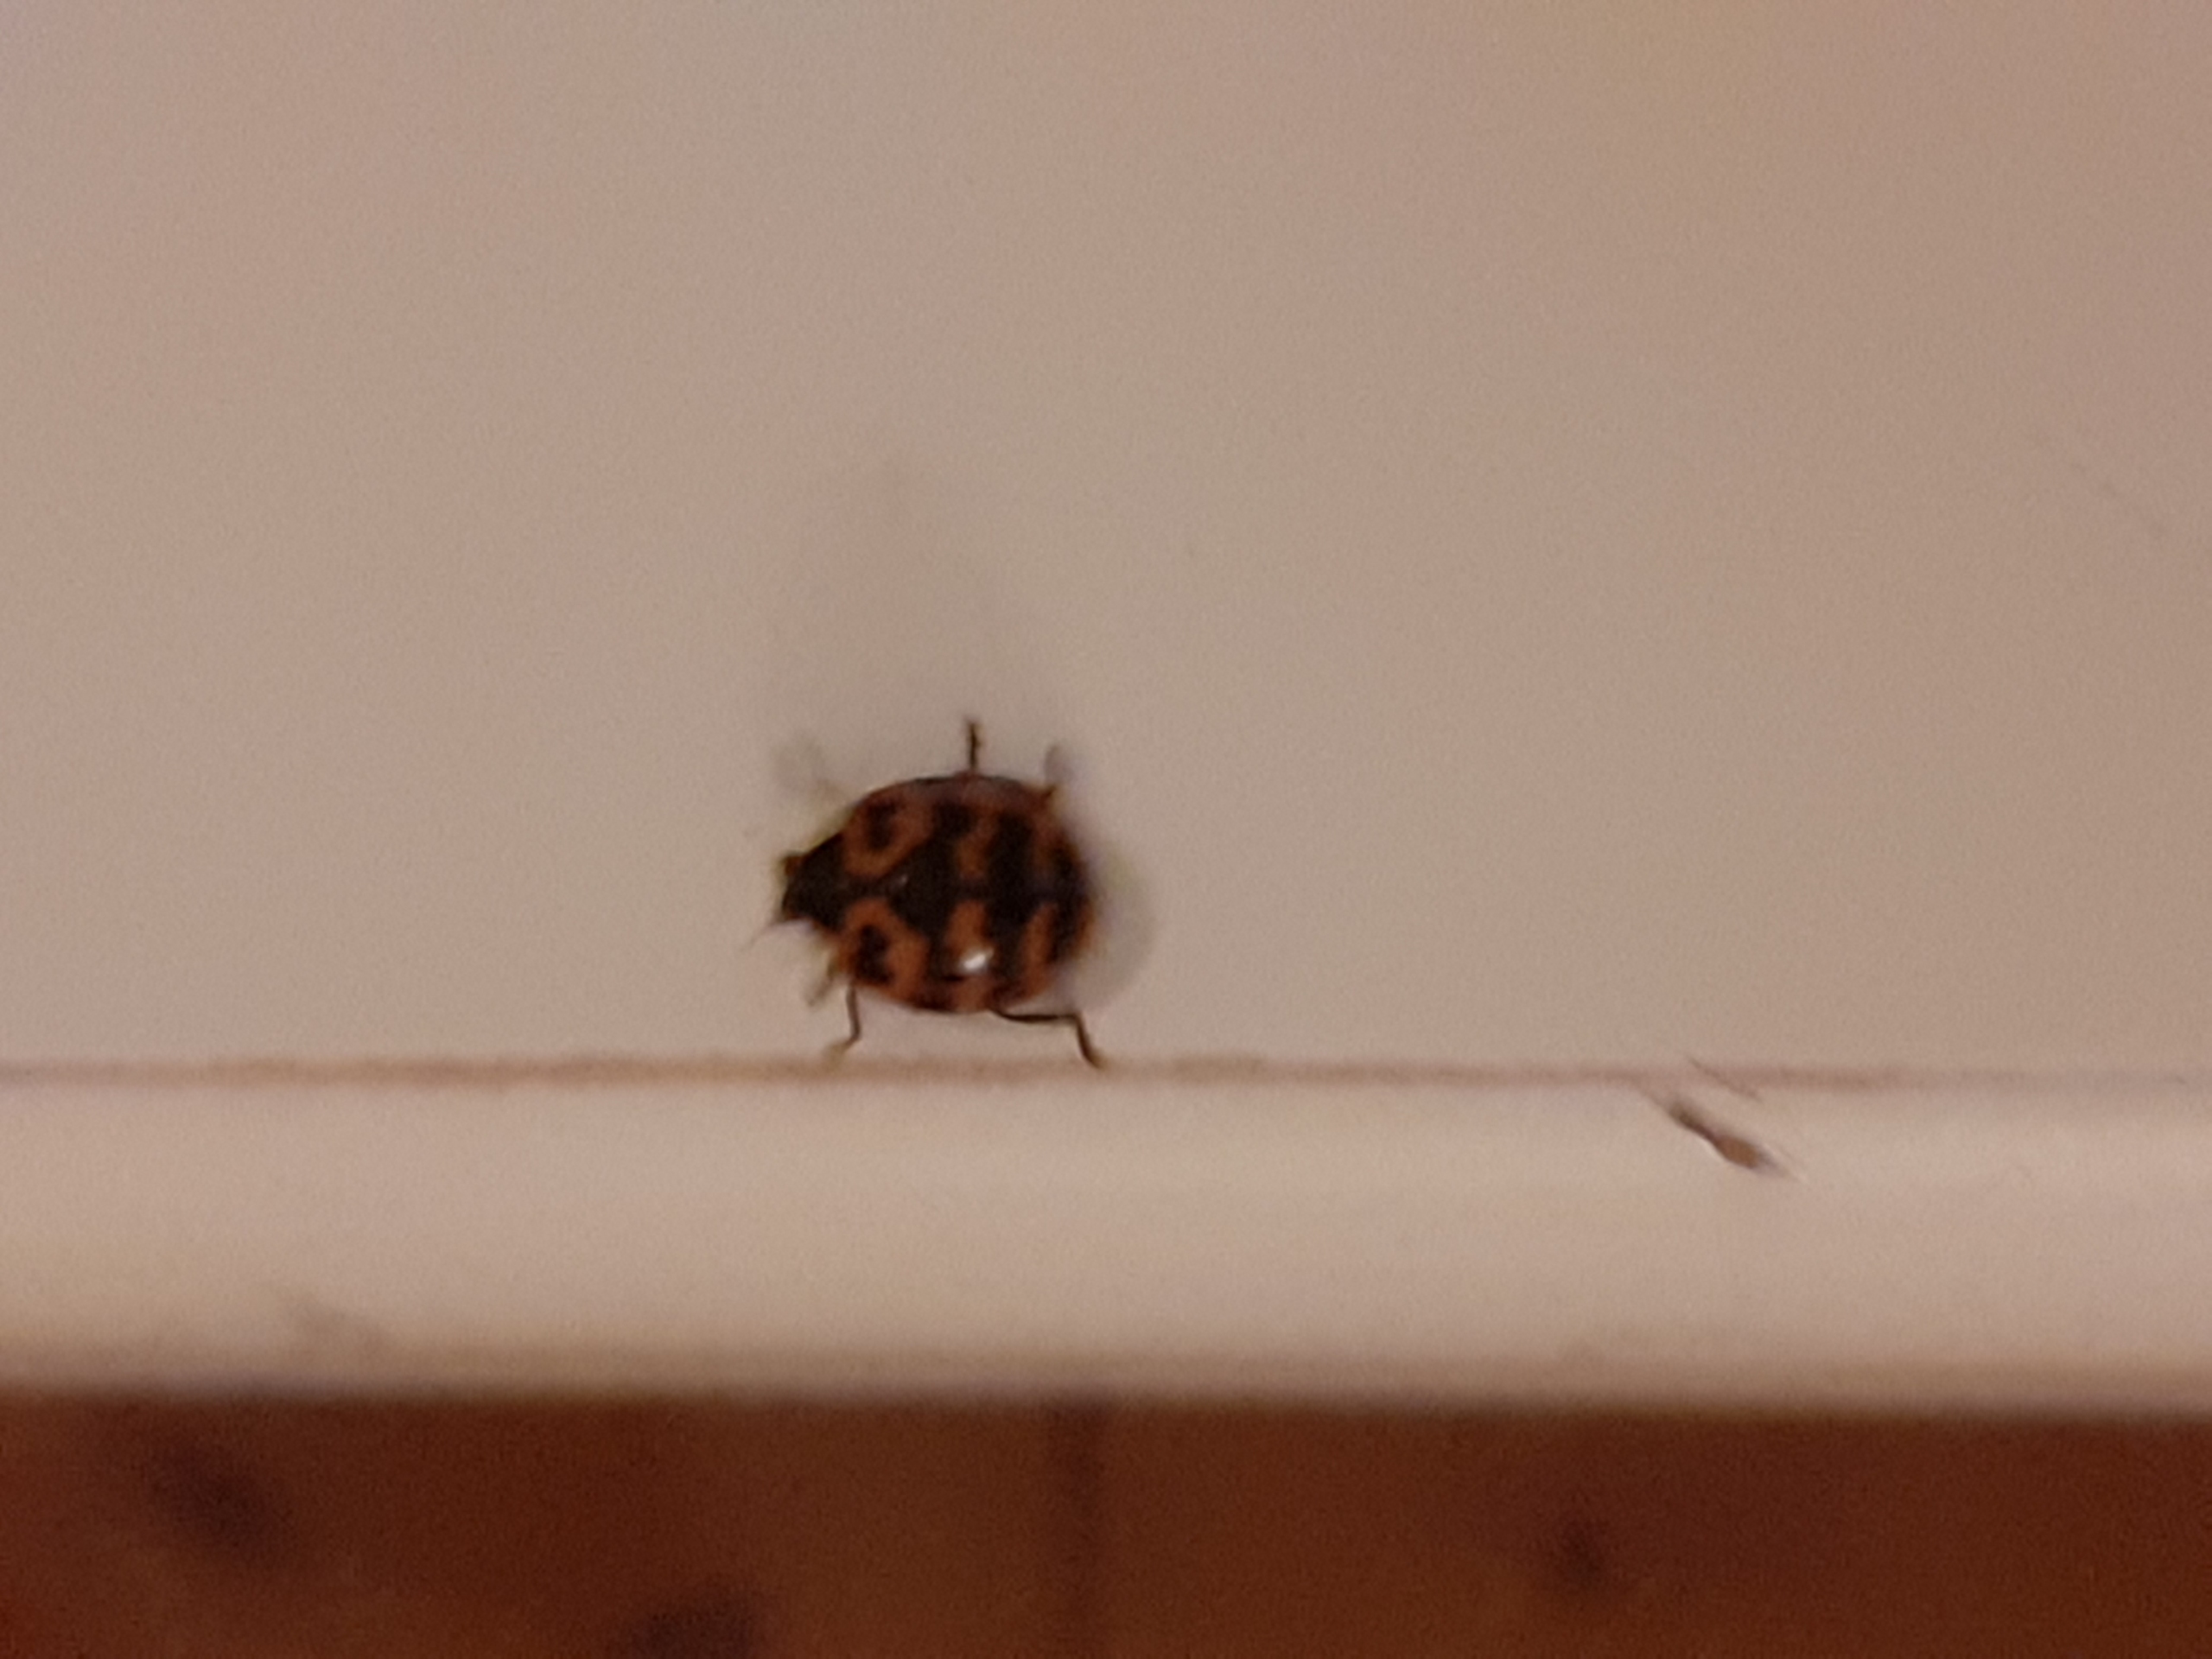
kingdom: Animalia
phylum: Arthropoda
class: Insecta
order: Coleoptera
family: Coccinellidae
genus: Harmonia
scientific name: Harmonia axyridis
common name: Harlekinmariehøne
